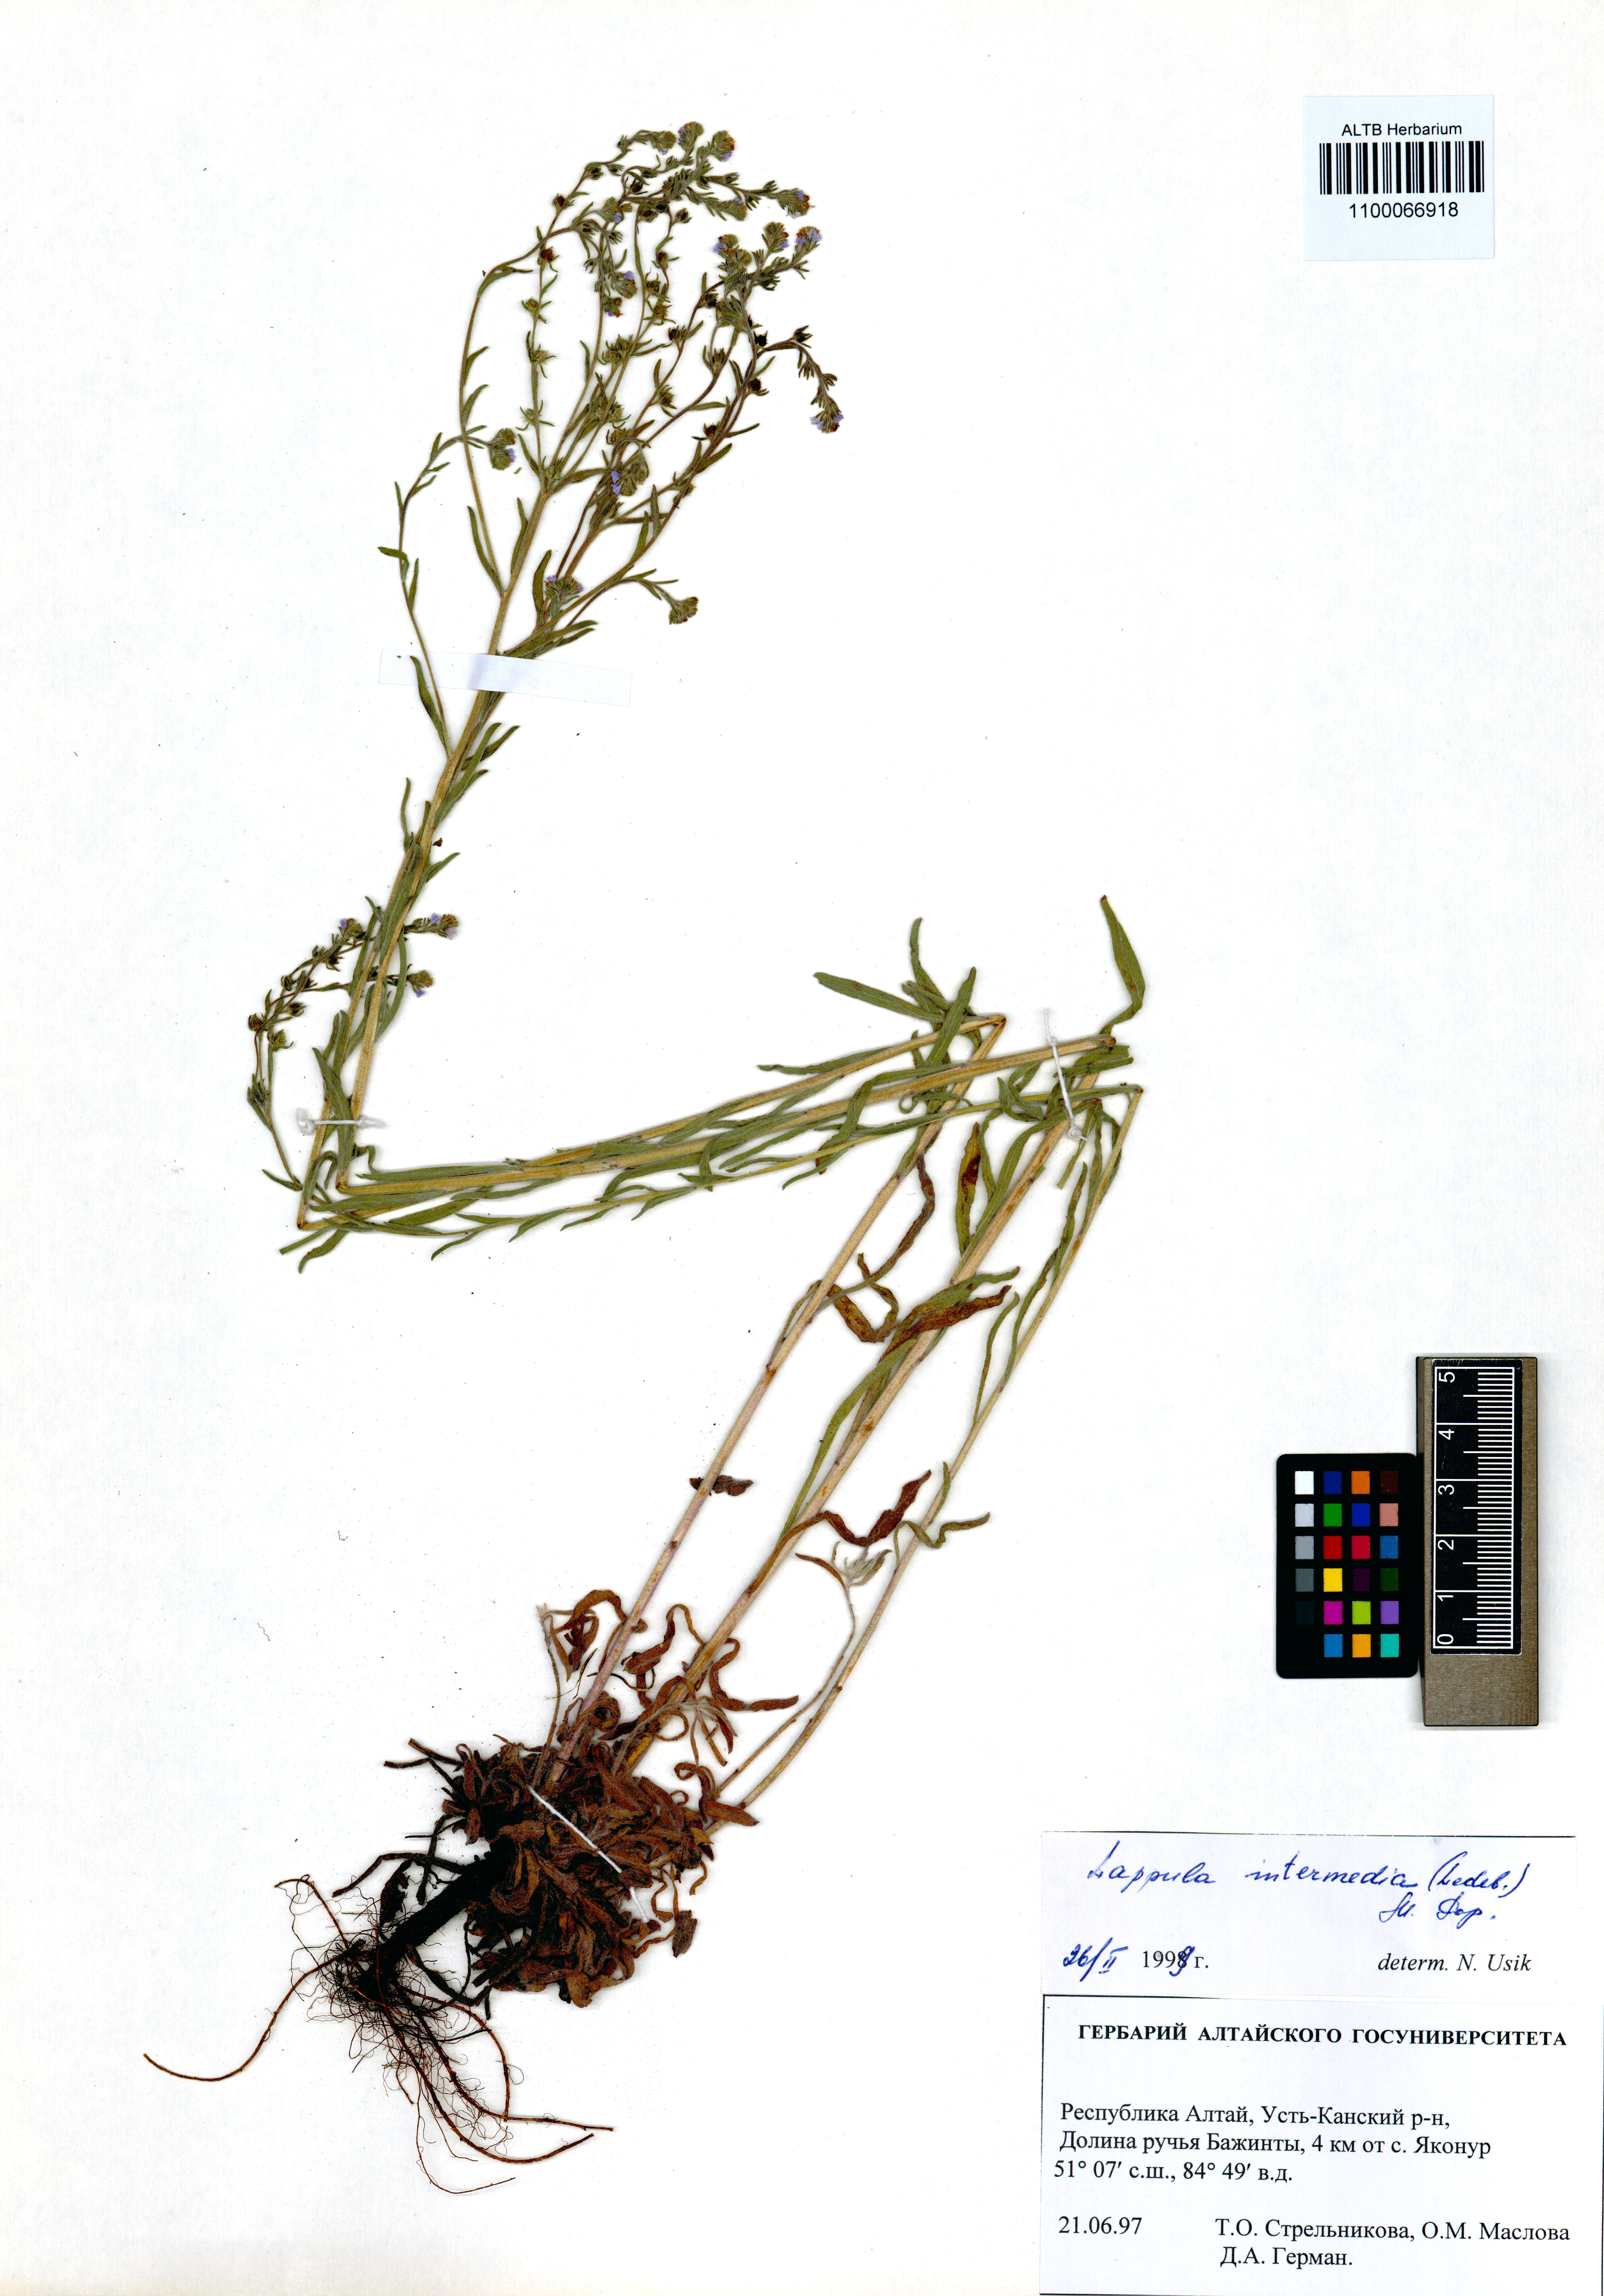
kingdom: Plantae
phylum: Tracheophyta
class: Magnoliopsida
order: Boraginales
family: Boraginaceae
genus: Lappula
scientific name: Lappula intermedia
